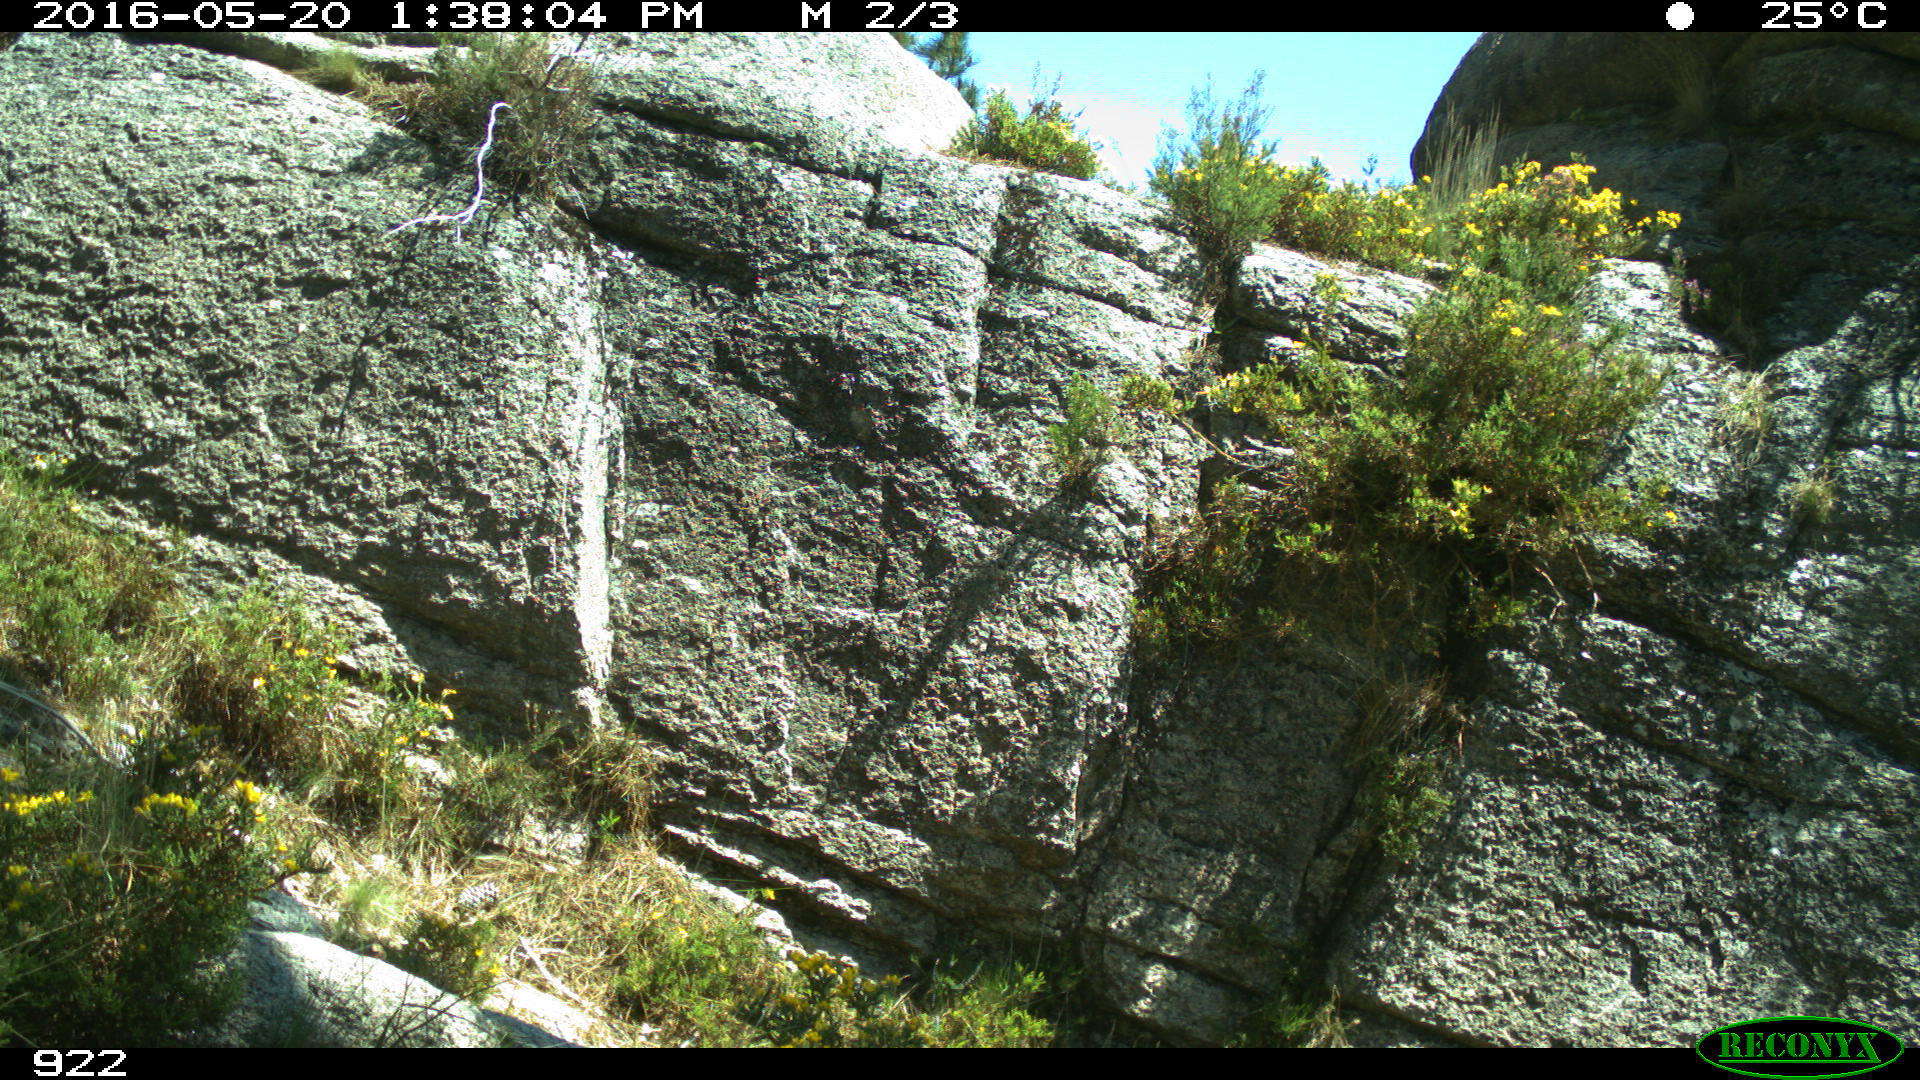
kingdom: Animalia
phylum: Chordata
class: Mammalia
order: Artiodactyla
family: Cervidae
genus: Capreolus
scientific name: Capreolus capreolus
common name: Western roe deer
